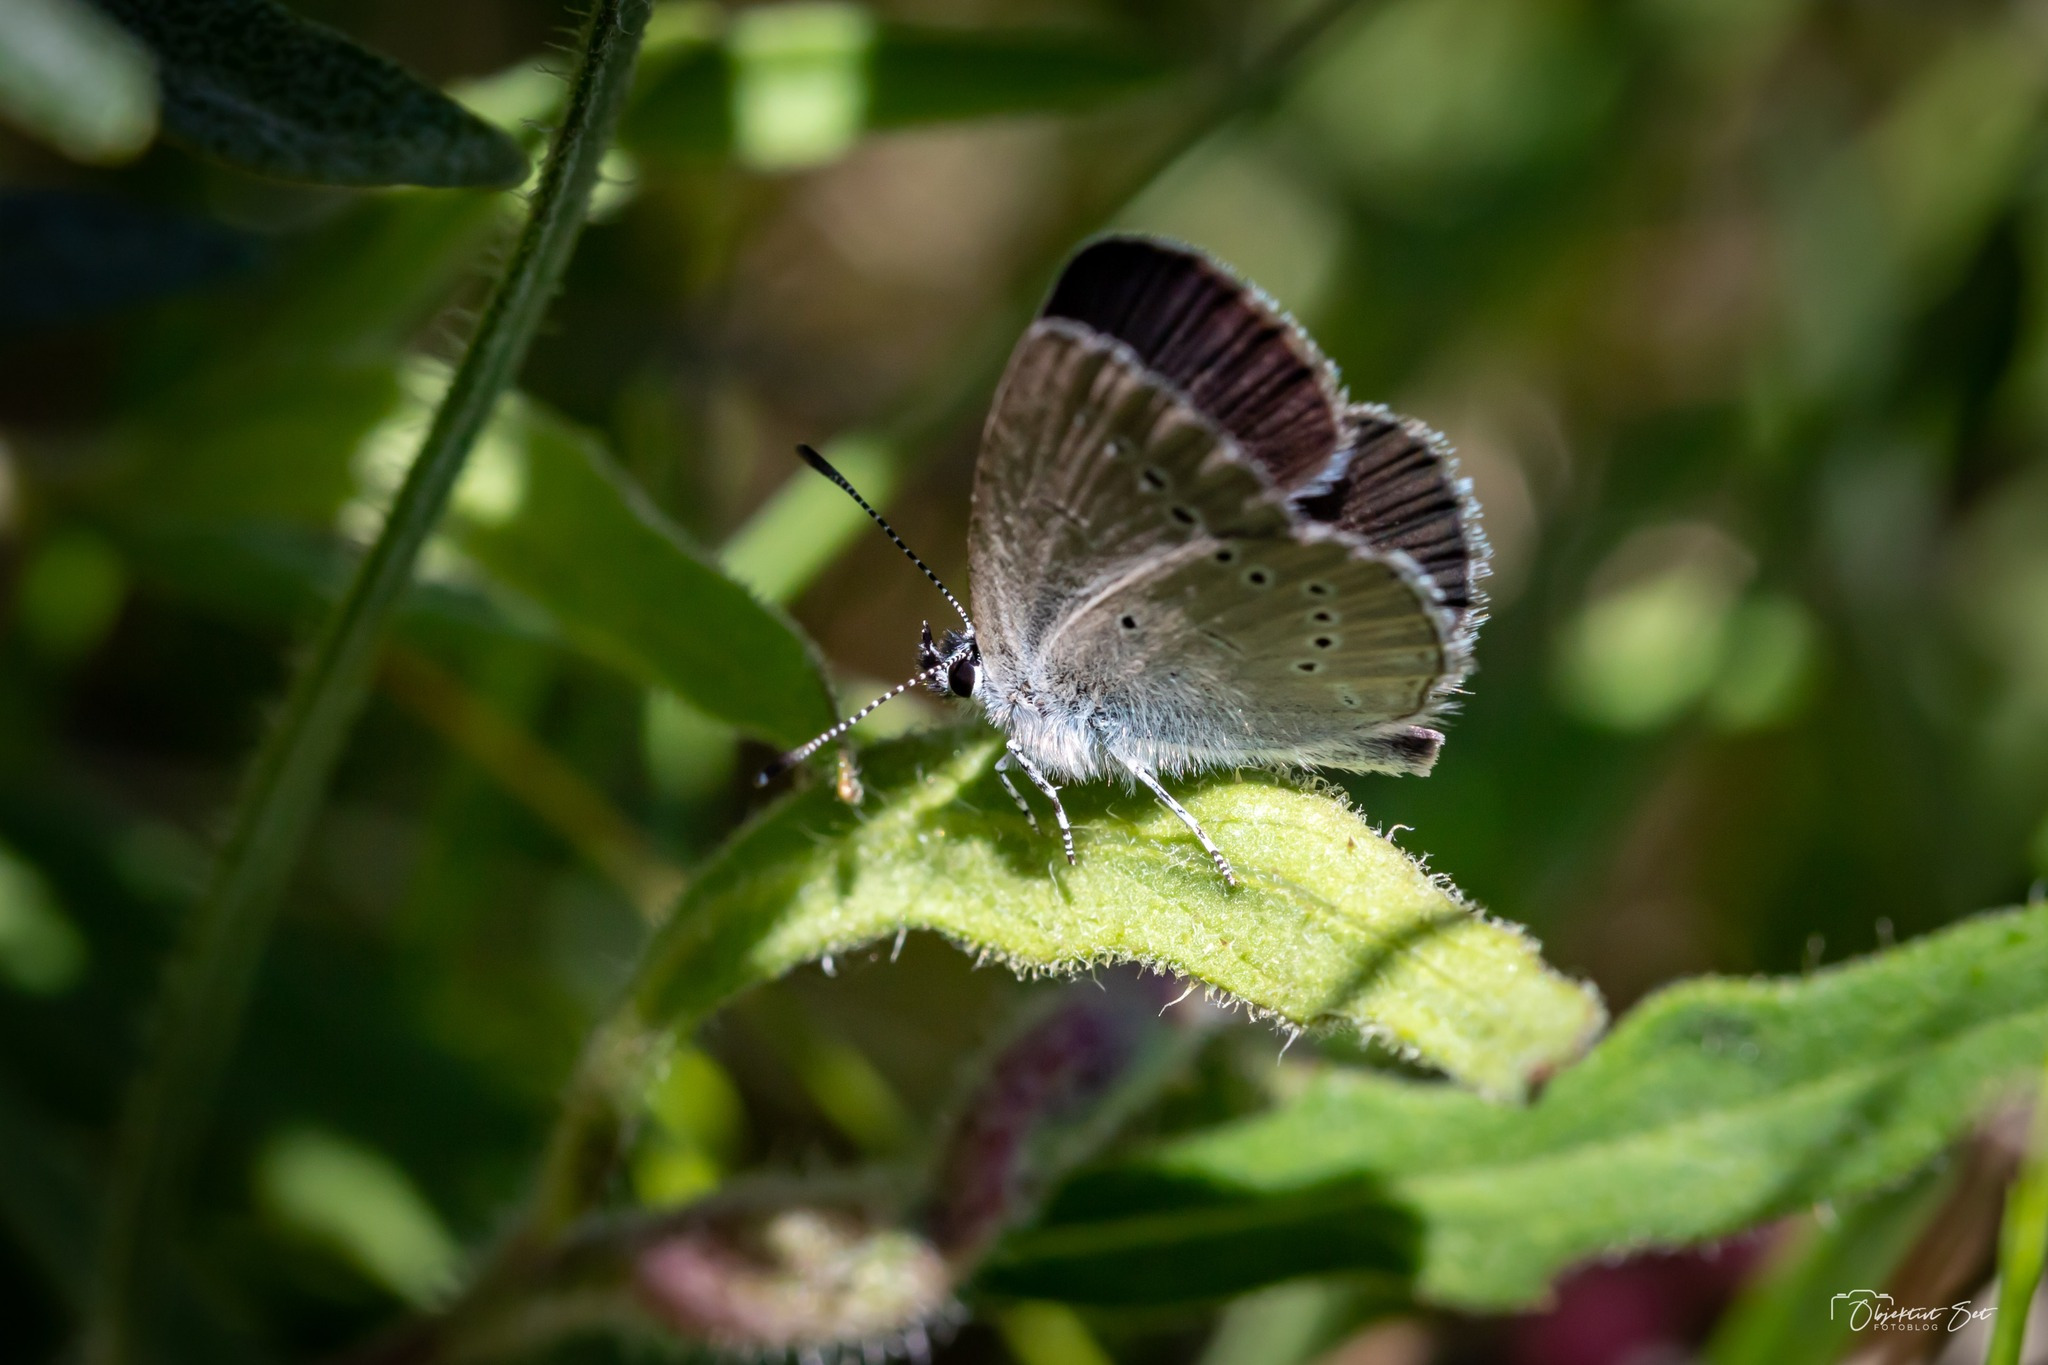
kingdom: Animalia
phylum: Arthropoda
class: Insecta
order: Lepidoptera
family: Lycaenidae
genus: Cupido
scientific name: Cupido minimus
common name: Dværgblåfugl
